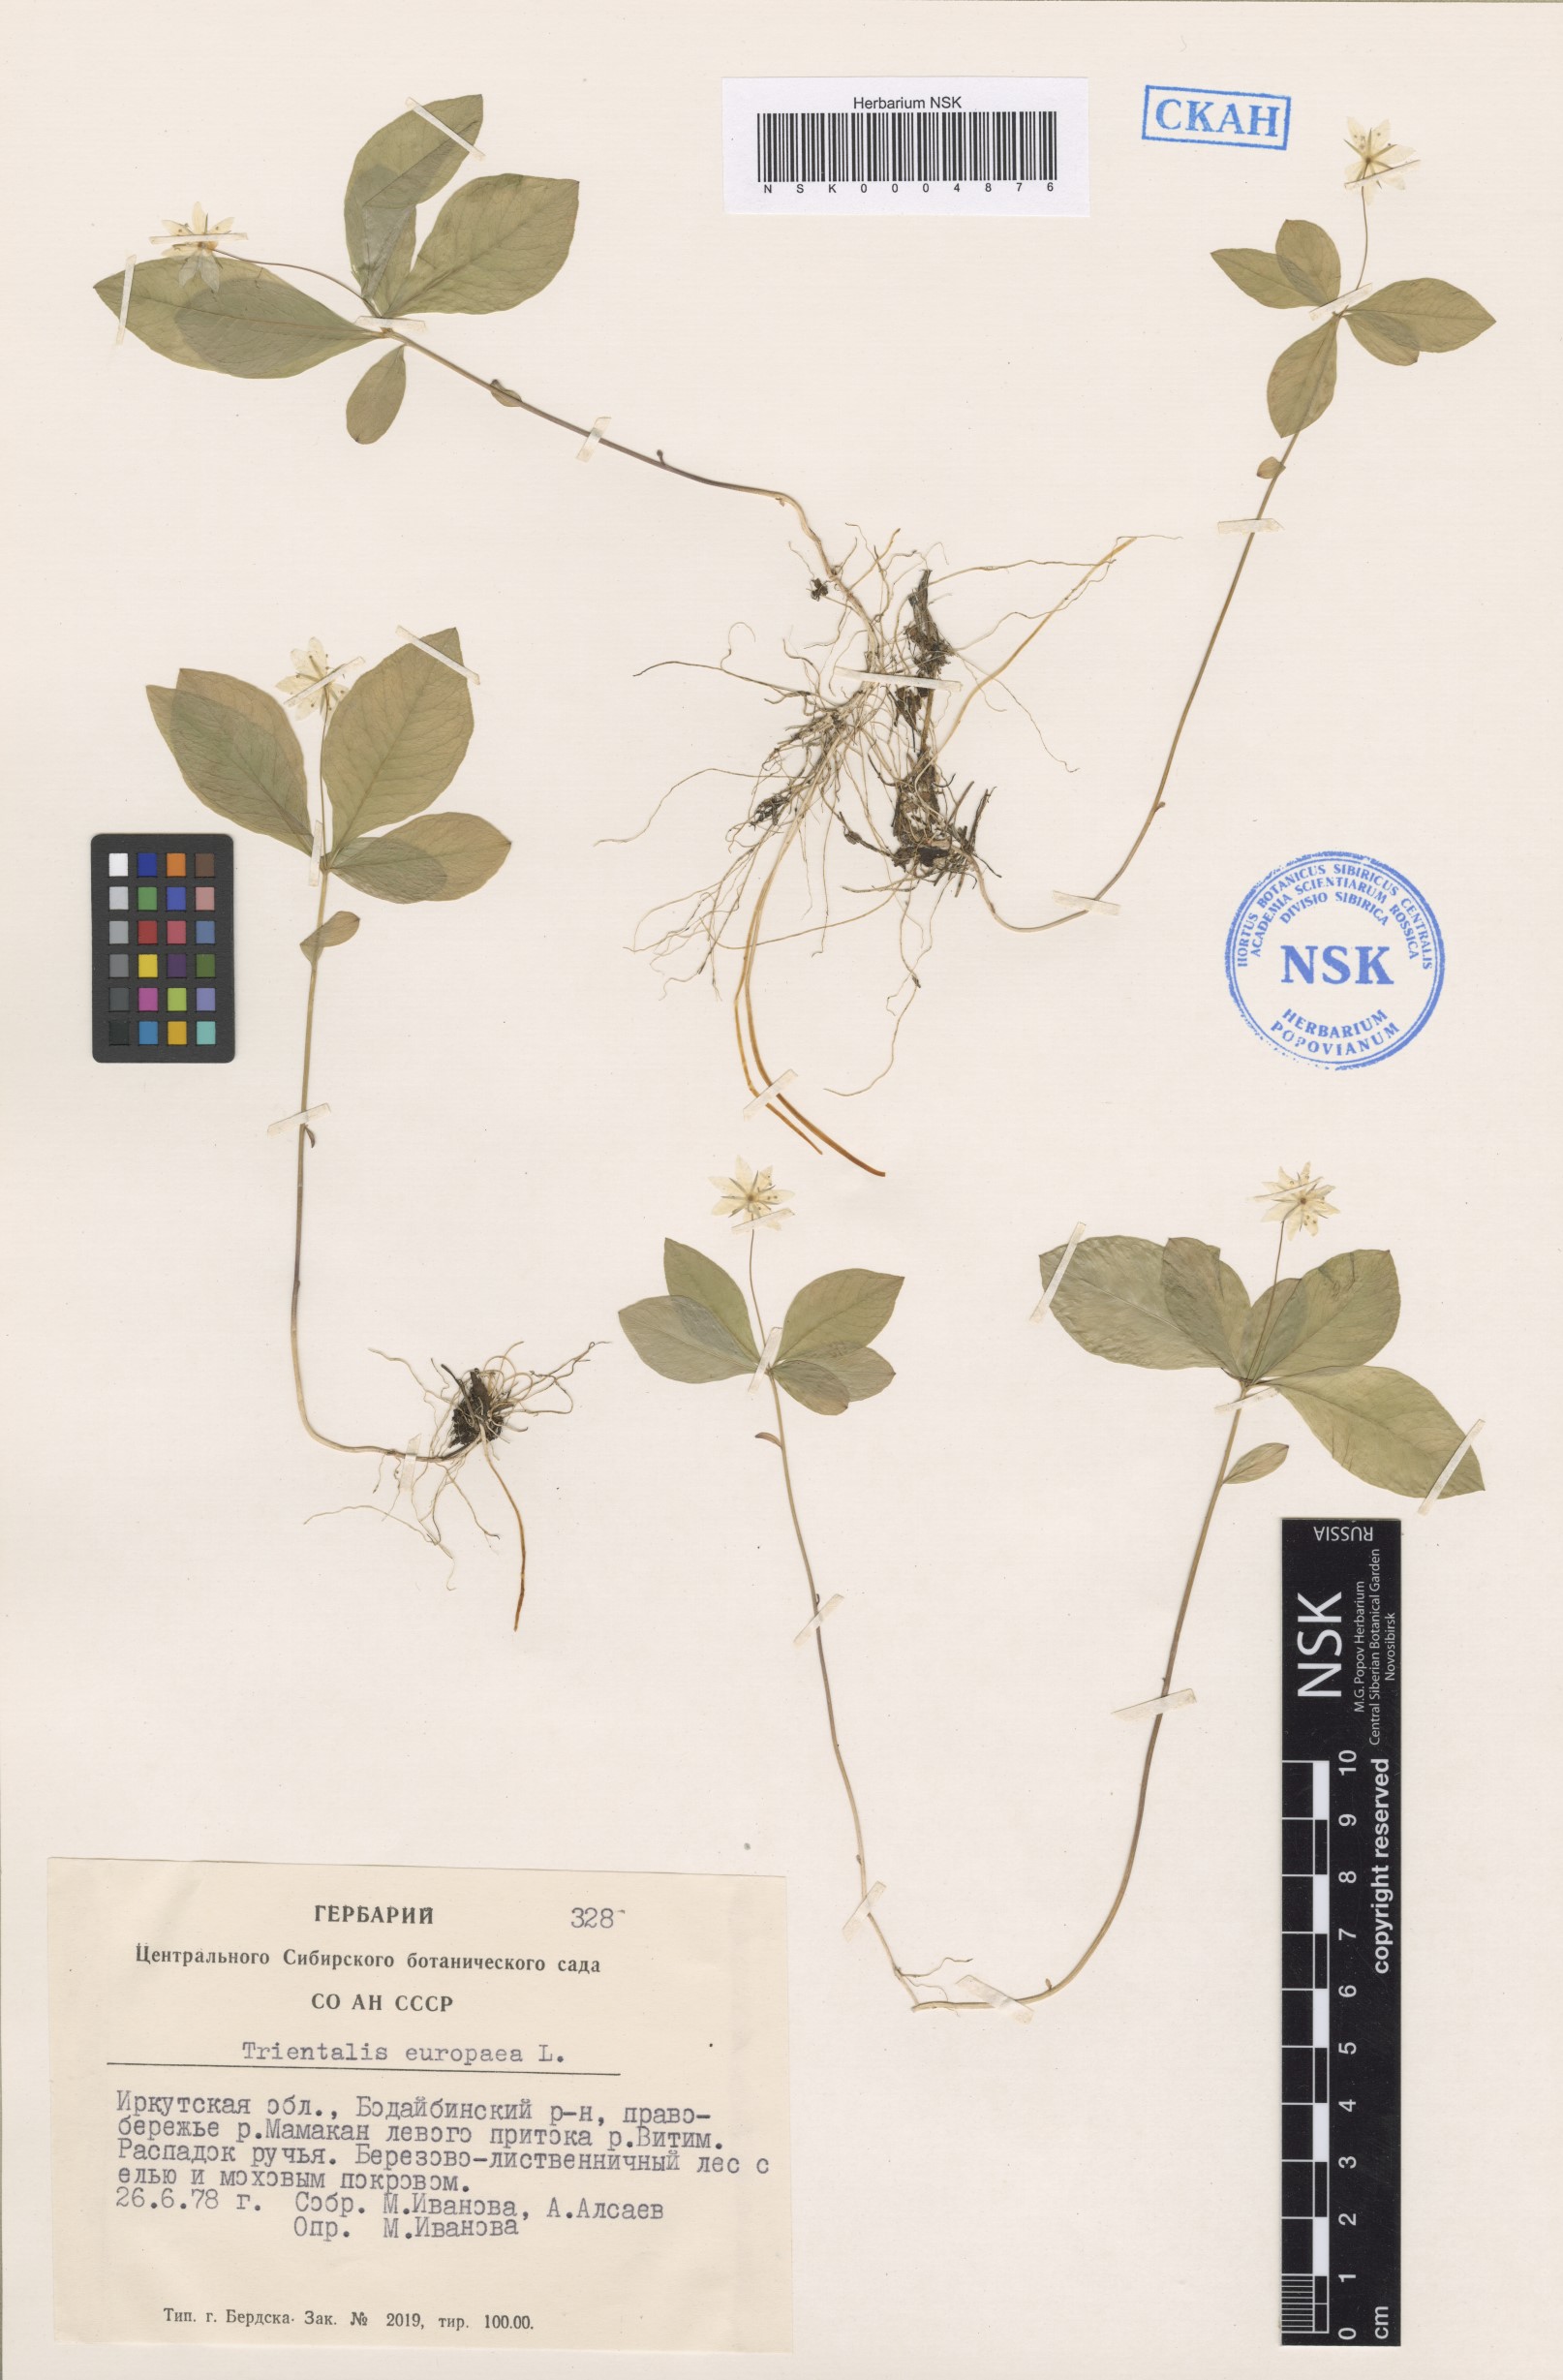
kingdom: Plantae
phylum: Tracheophyta
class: Magnoliopsida
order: Ericales
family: Primulaceae
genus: Lysimachia
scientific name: Lysimachia europaea
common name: Arctic starflower
